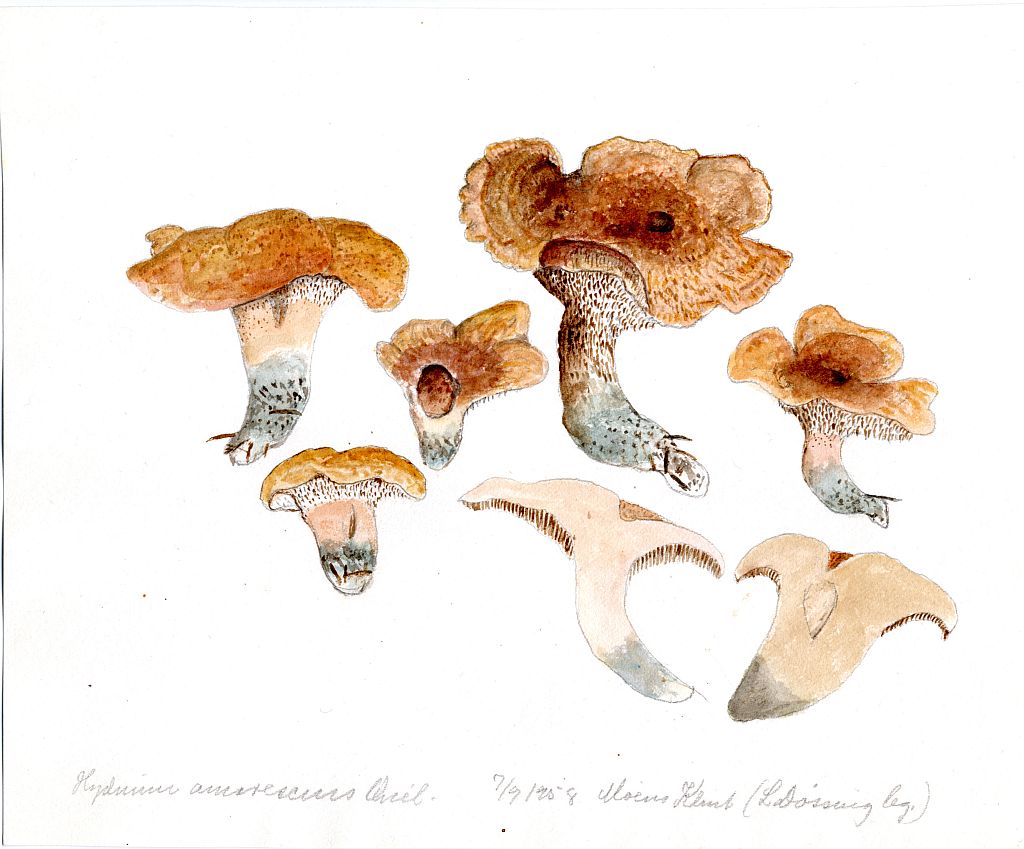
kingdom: Fungi
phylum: Basidiomycota
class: Agaricomycetes
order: Thelephorales
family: Bankeraceae
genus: Hydnellum
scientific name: Hydnellum fennicum
